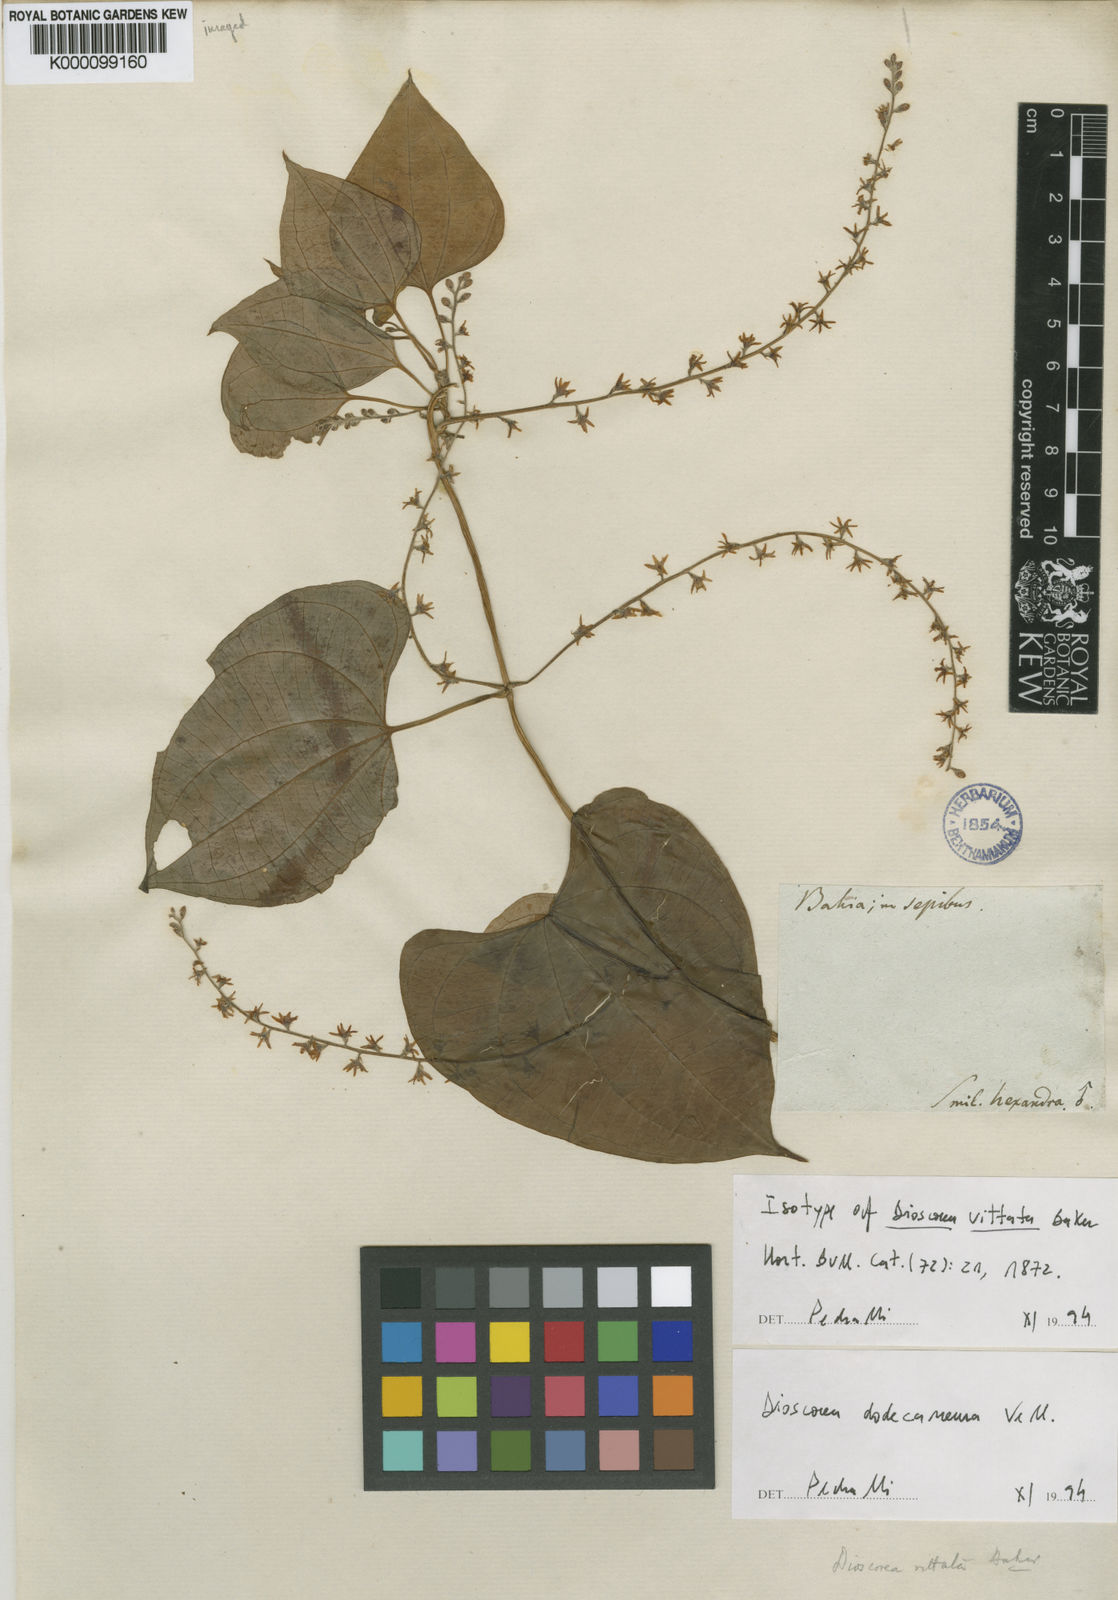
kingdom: Plantae
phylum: Tracheophyta
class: Liliopsida
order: Dioscoreales
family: Dioscoreaceae
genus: Dioscorea
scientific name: Dioscorea dodecaneura
